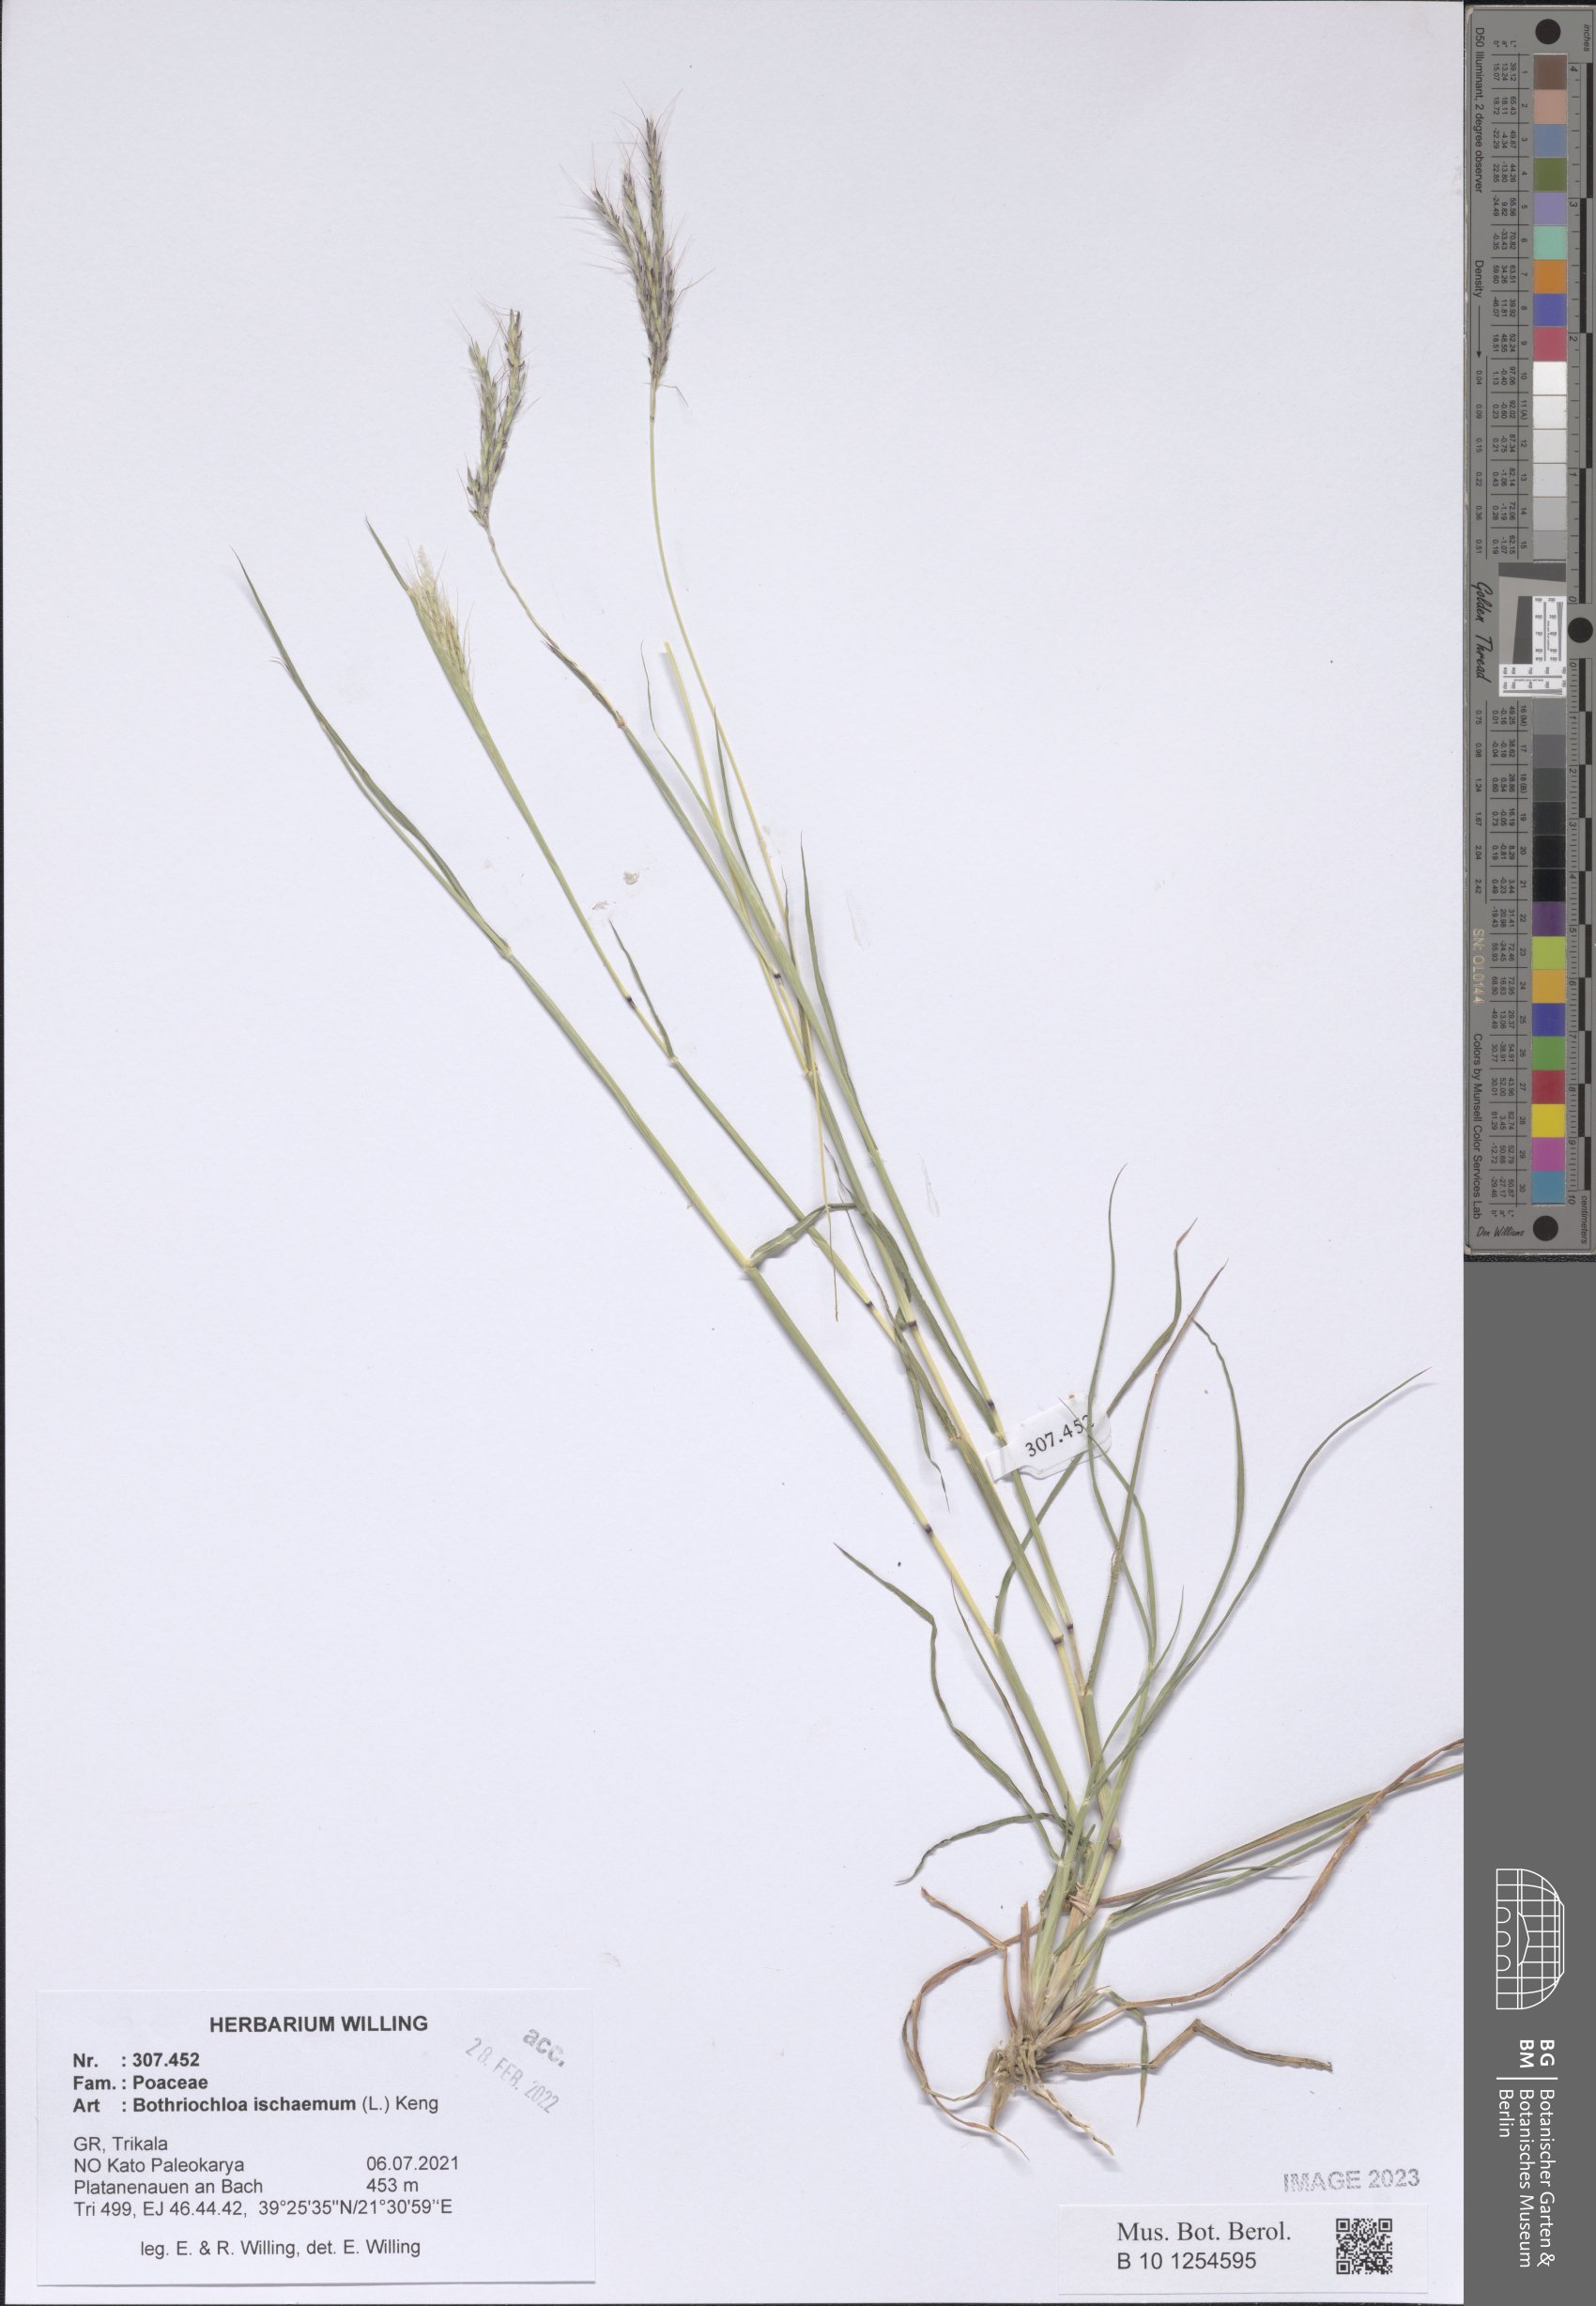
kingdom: Plantae
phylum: Tracheophyta
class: Liliopsida
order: Poales
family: Poaceae
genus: Bothriochloa
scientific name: Bothriochloa ischaemum
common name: Yellow bluestem
